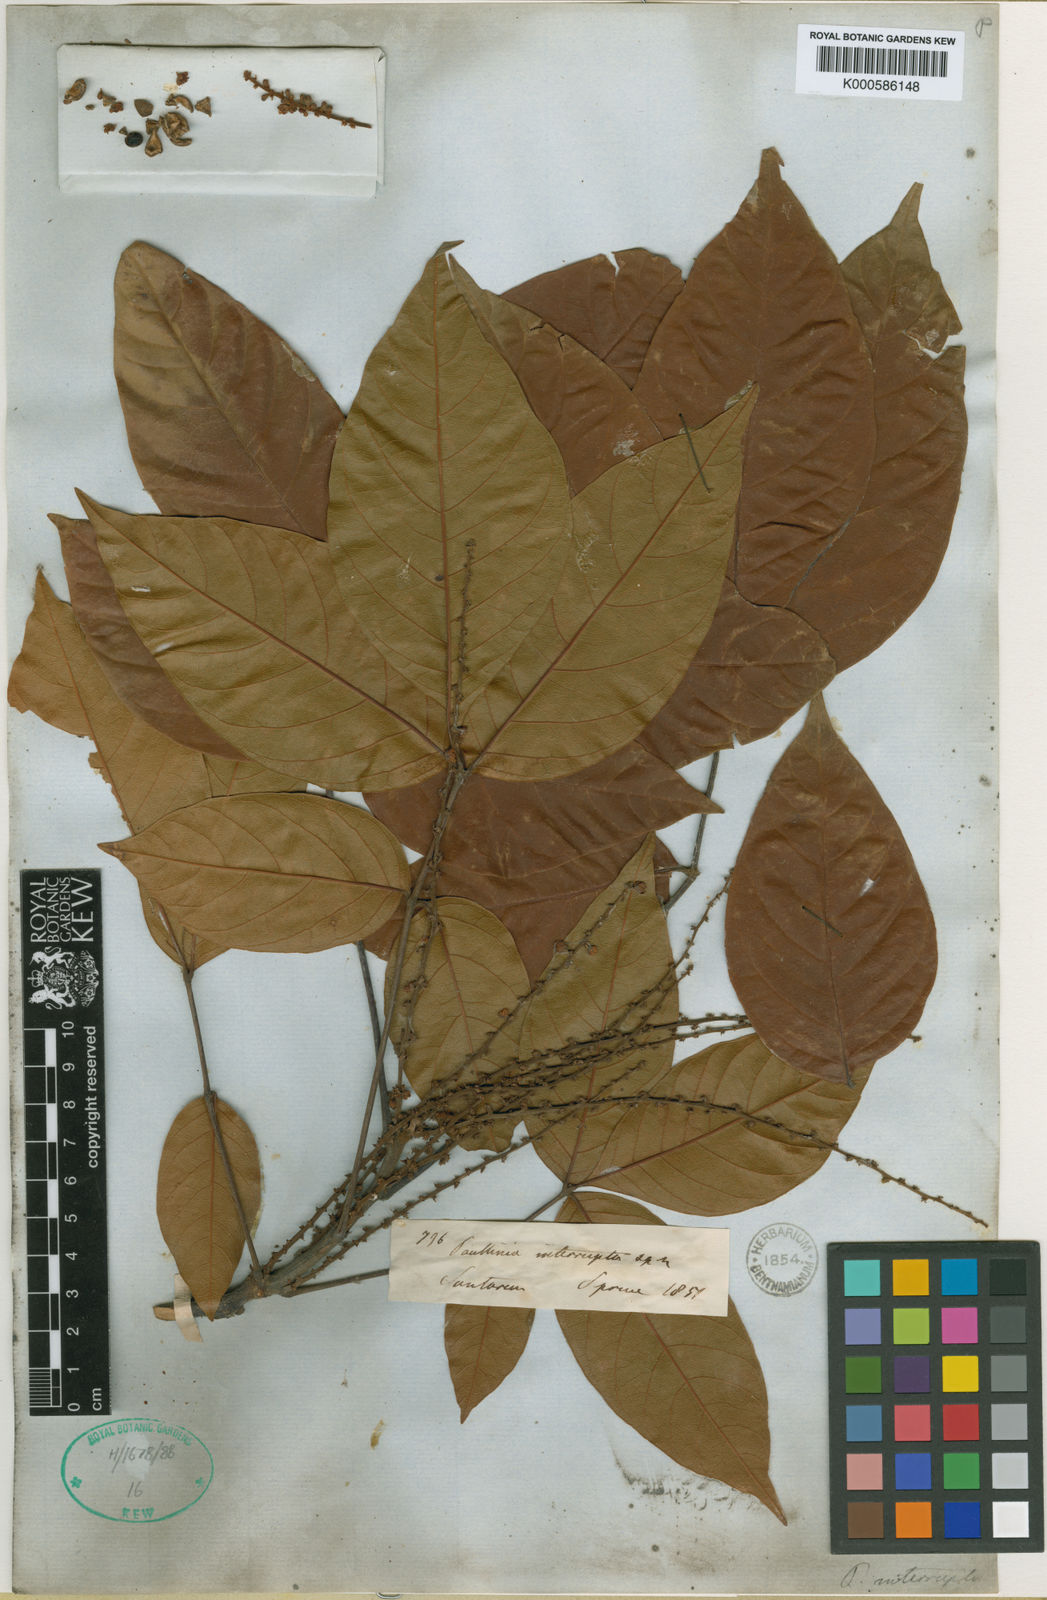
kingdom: Plantae
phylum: Tracheophyta
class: Magnoliopsida
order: Sapindales
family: Sapindaceae
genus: Paullinia
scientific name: Paullinia interrupta
